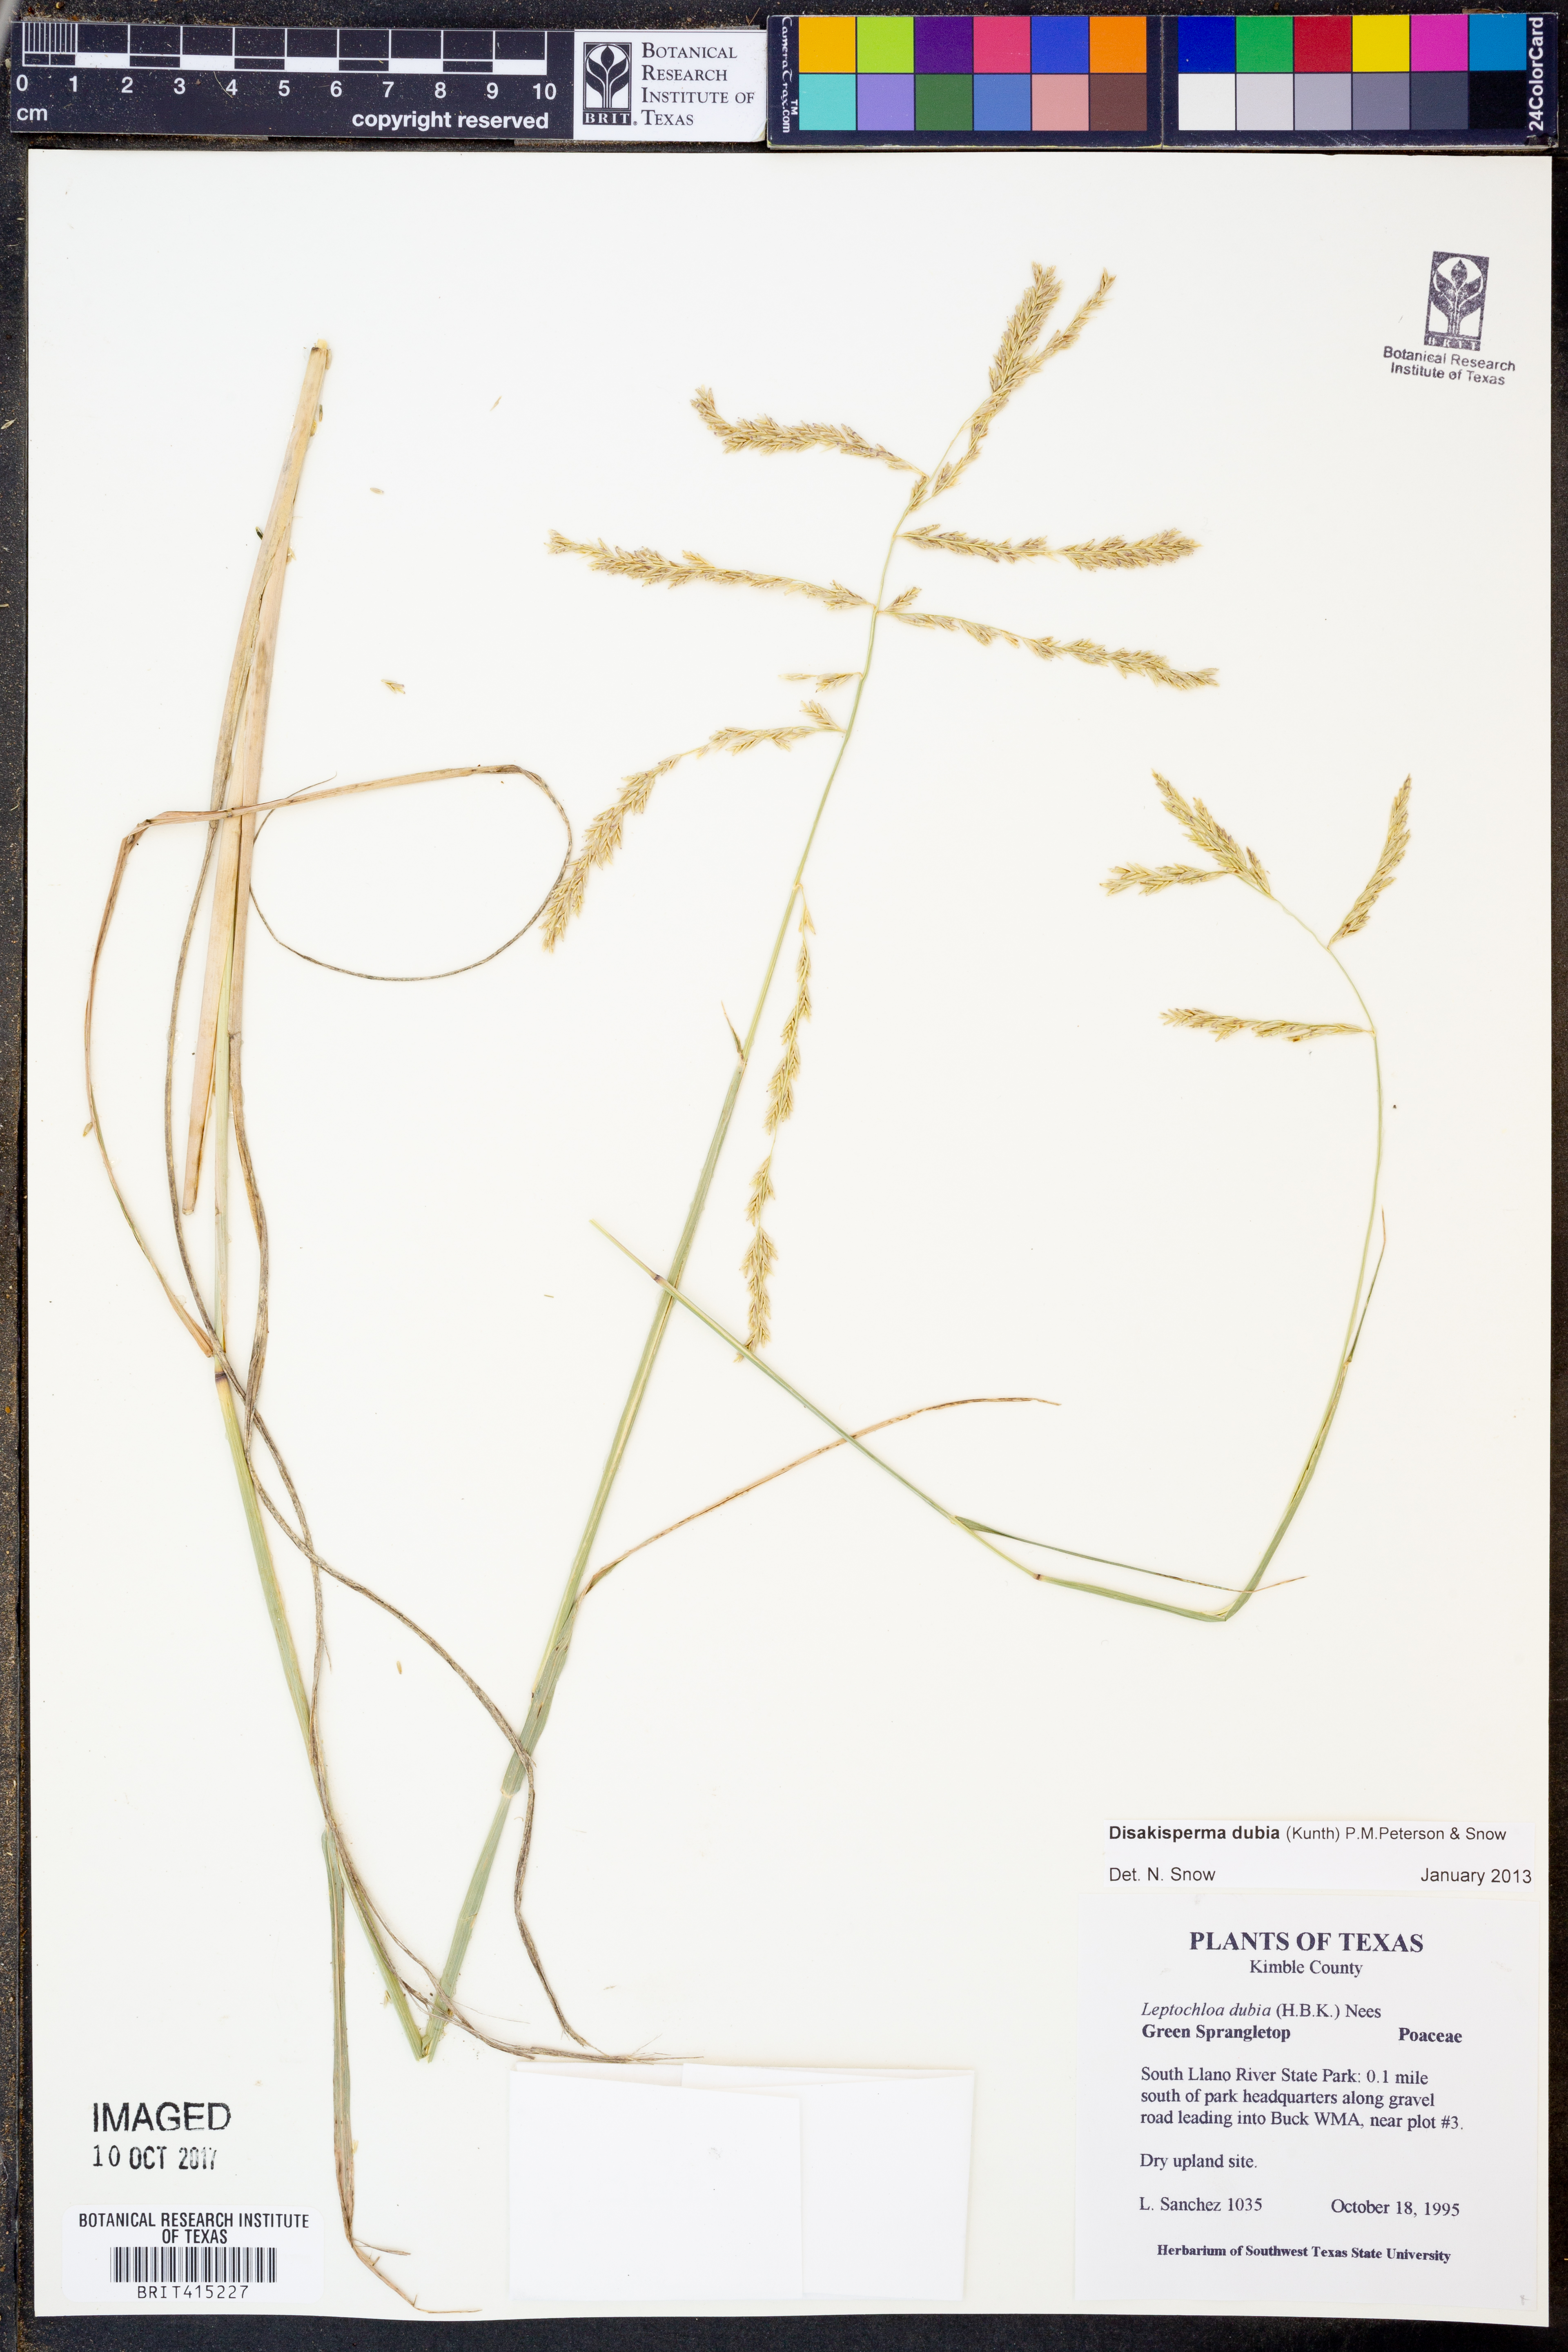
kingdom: Plantae
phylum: Tracheophyta
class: Liliopsida
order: Poales
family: Poaceae
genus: Disakisperma
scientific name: Disakisperma dubium
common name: Green sprangletop
